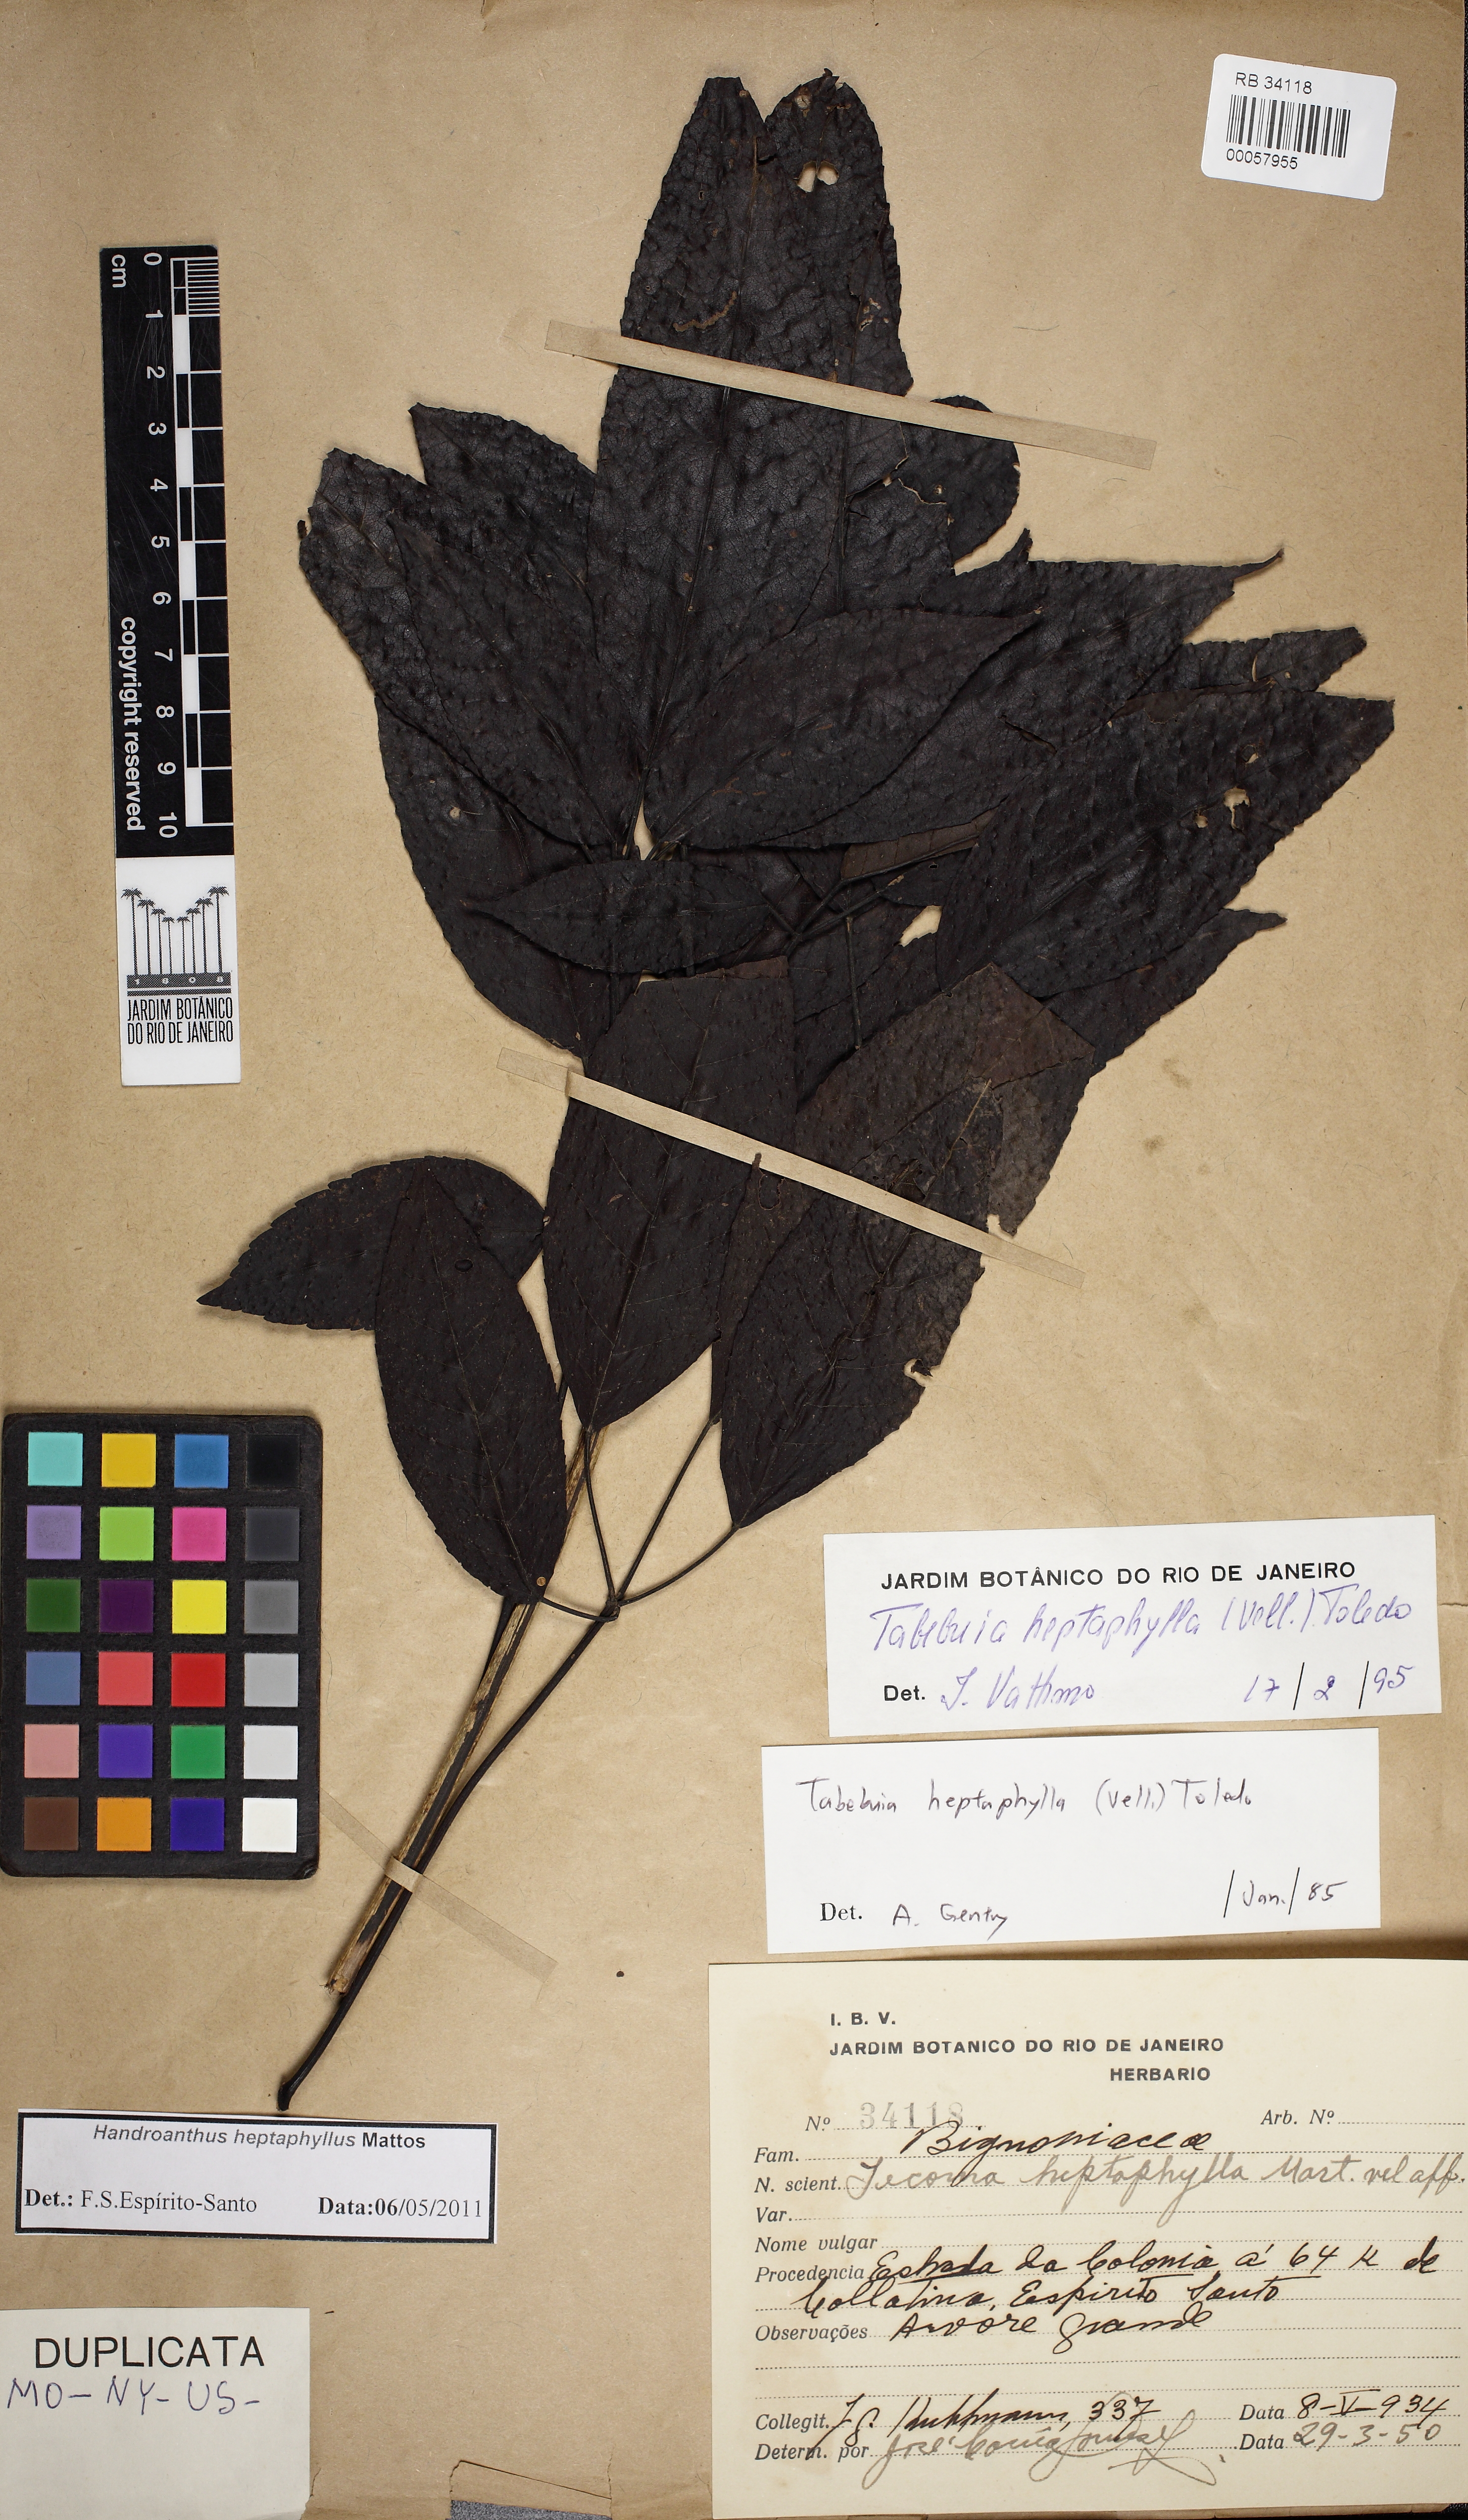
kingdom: Plantae
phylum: Tracheophyta
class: Magnoliopsida
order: Lamiales
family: Bignoniaceae
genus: Handroanthus
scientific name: Handroanthus heptaphyllus
